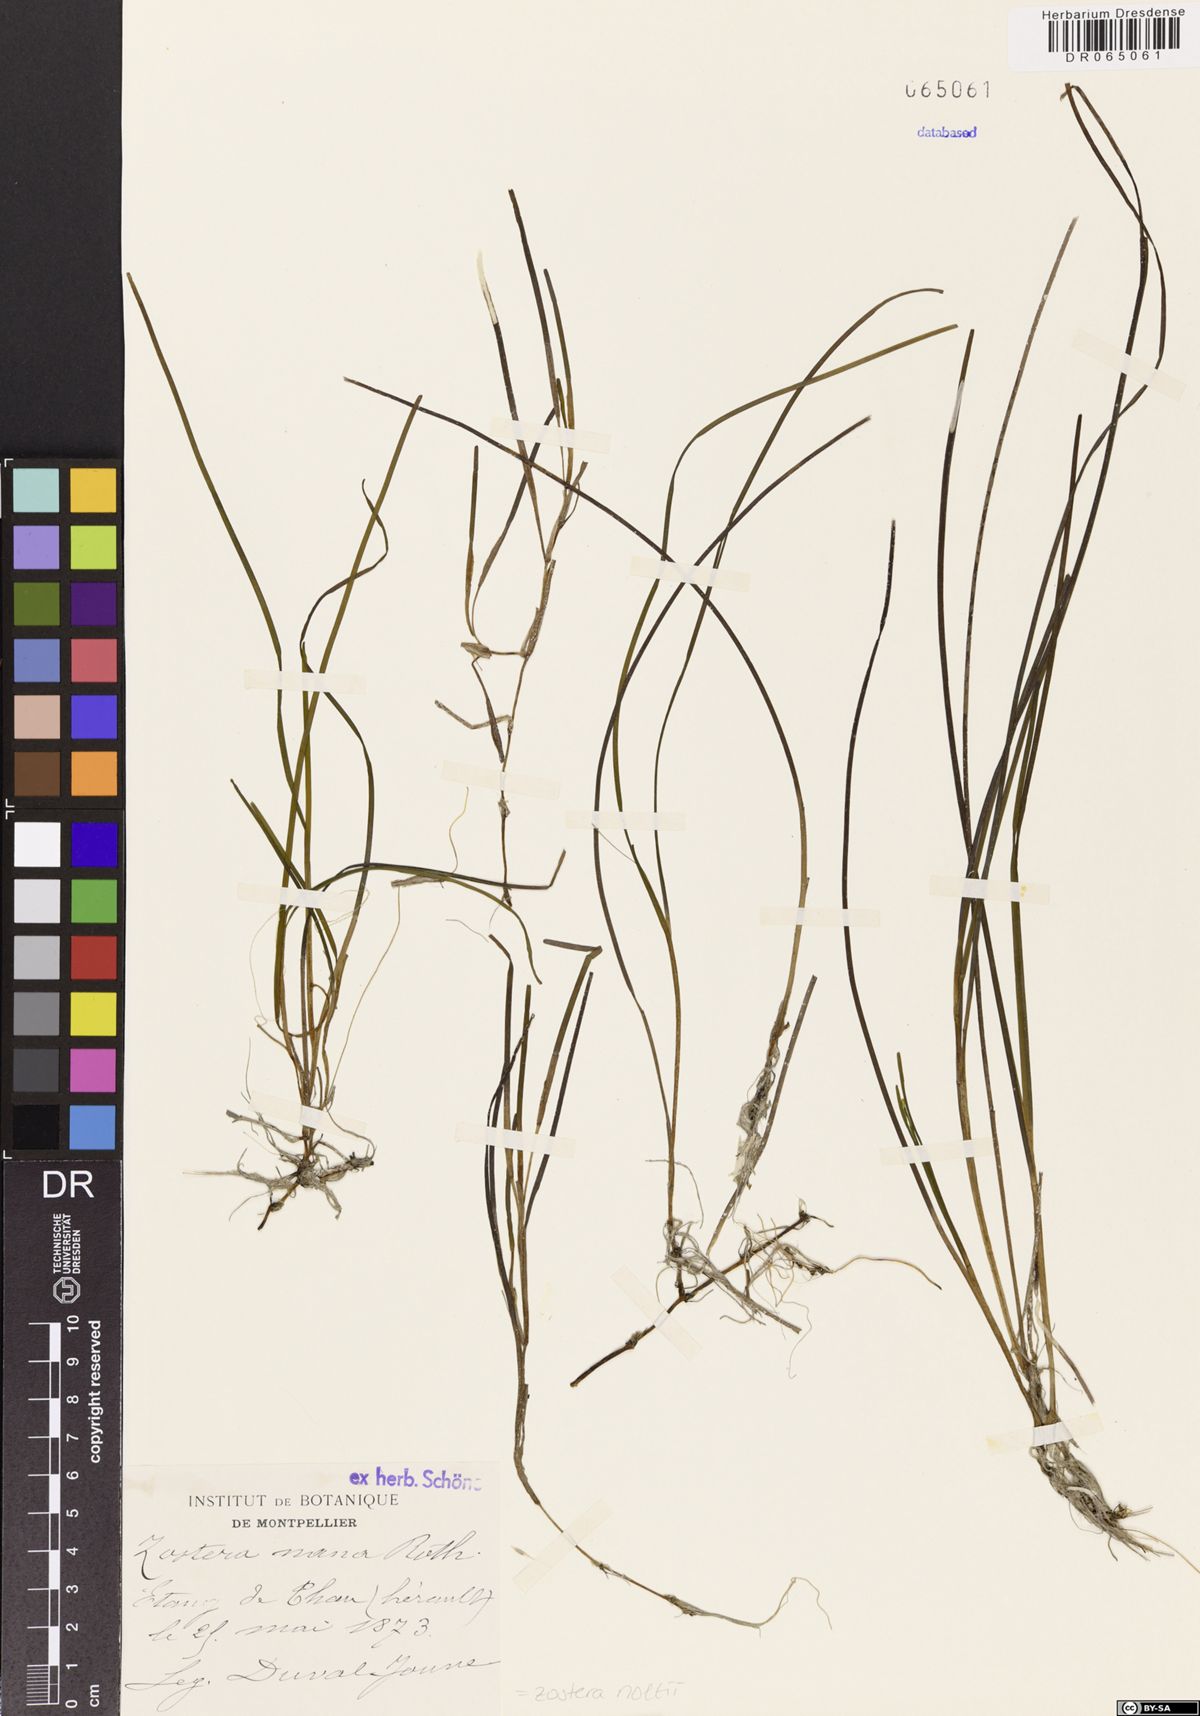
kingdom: Plantae
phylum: Tracheophyta
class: Liliopsida
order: Alismatales
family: Zosteraceae
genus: Zostera
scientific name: Zostera noltii
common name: Dwarf eelgrass
